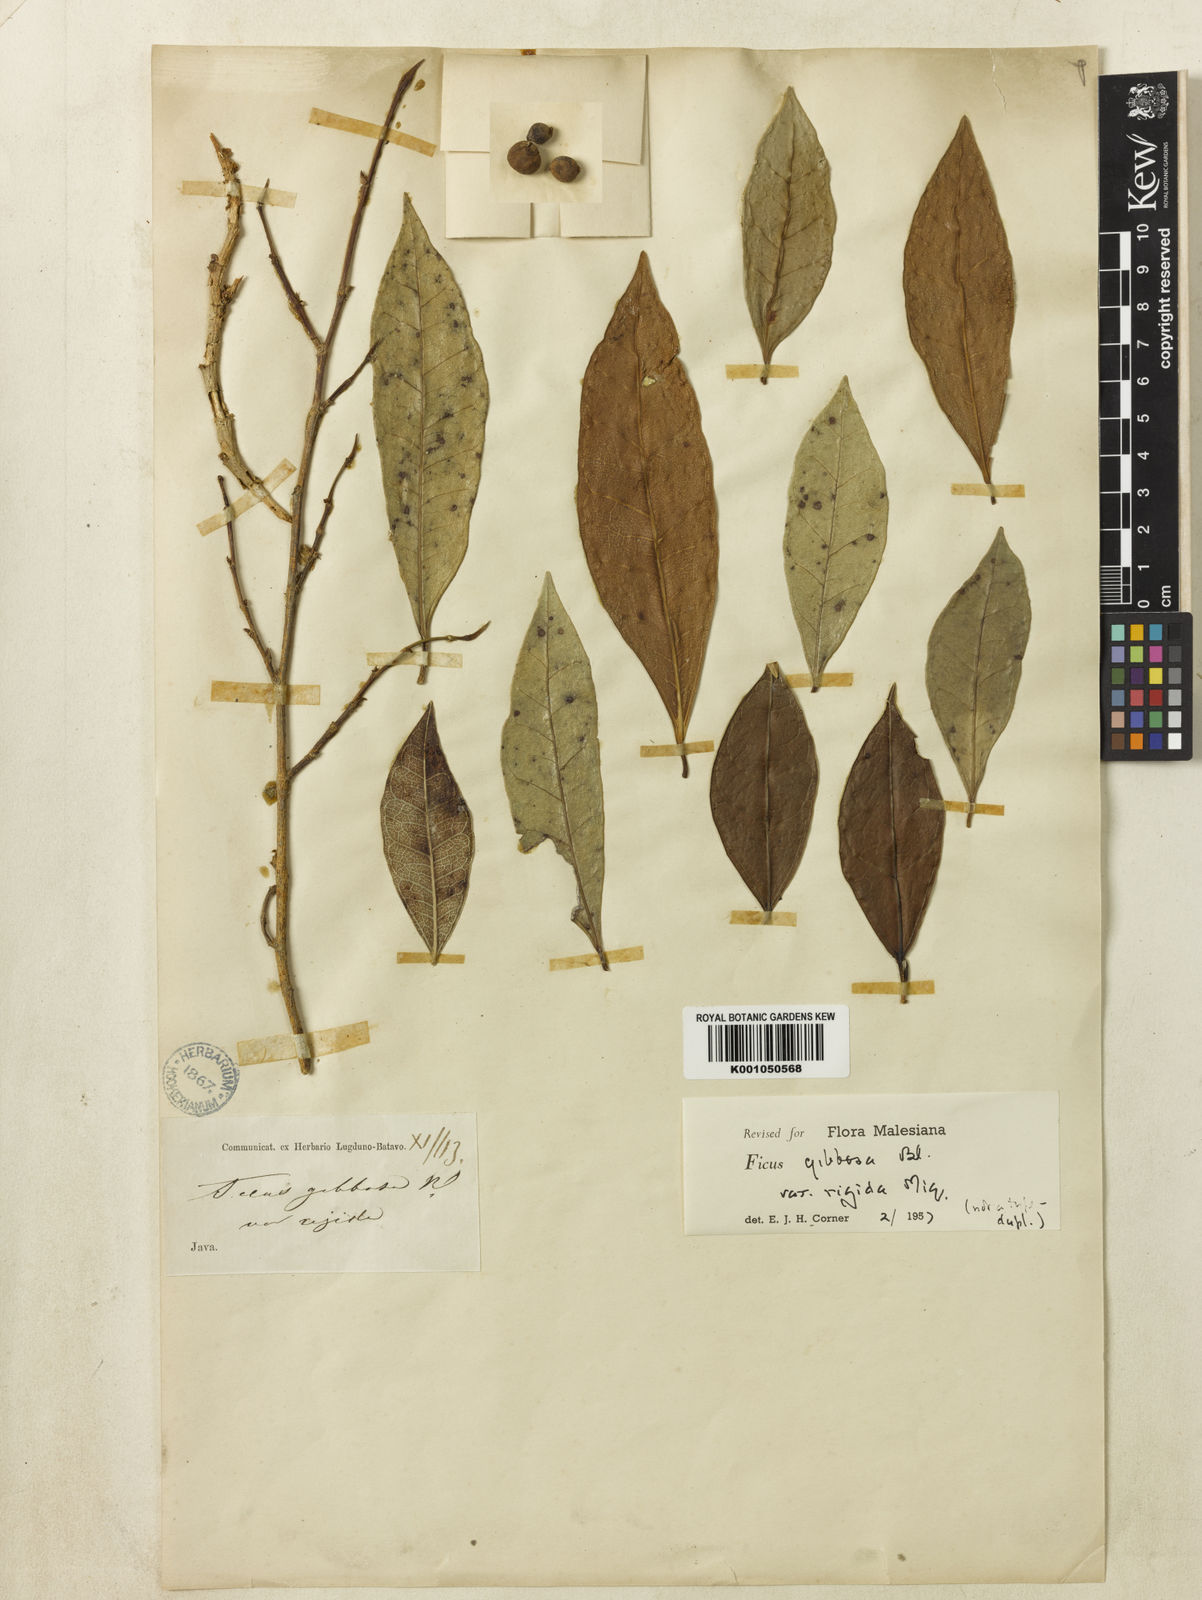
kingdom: Plantae
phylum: Tracheophyta
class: Magnoliopsida
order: Rosales
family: Moraceae
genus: Ficus
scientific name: Ficus tinctoria
